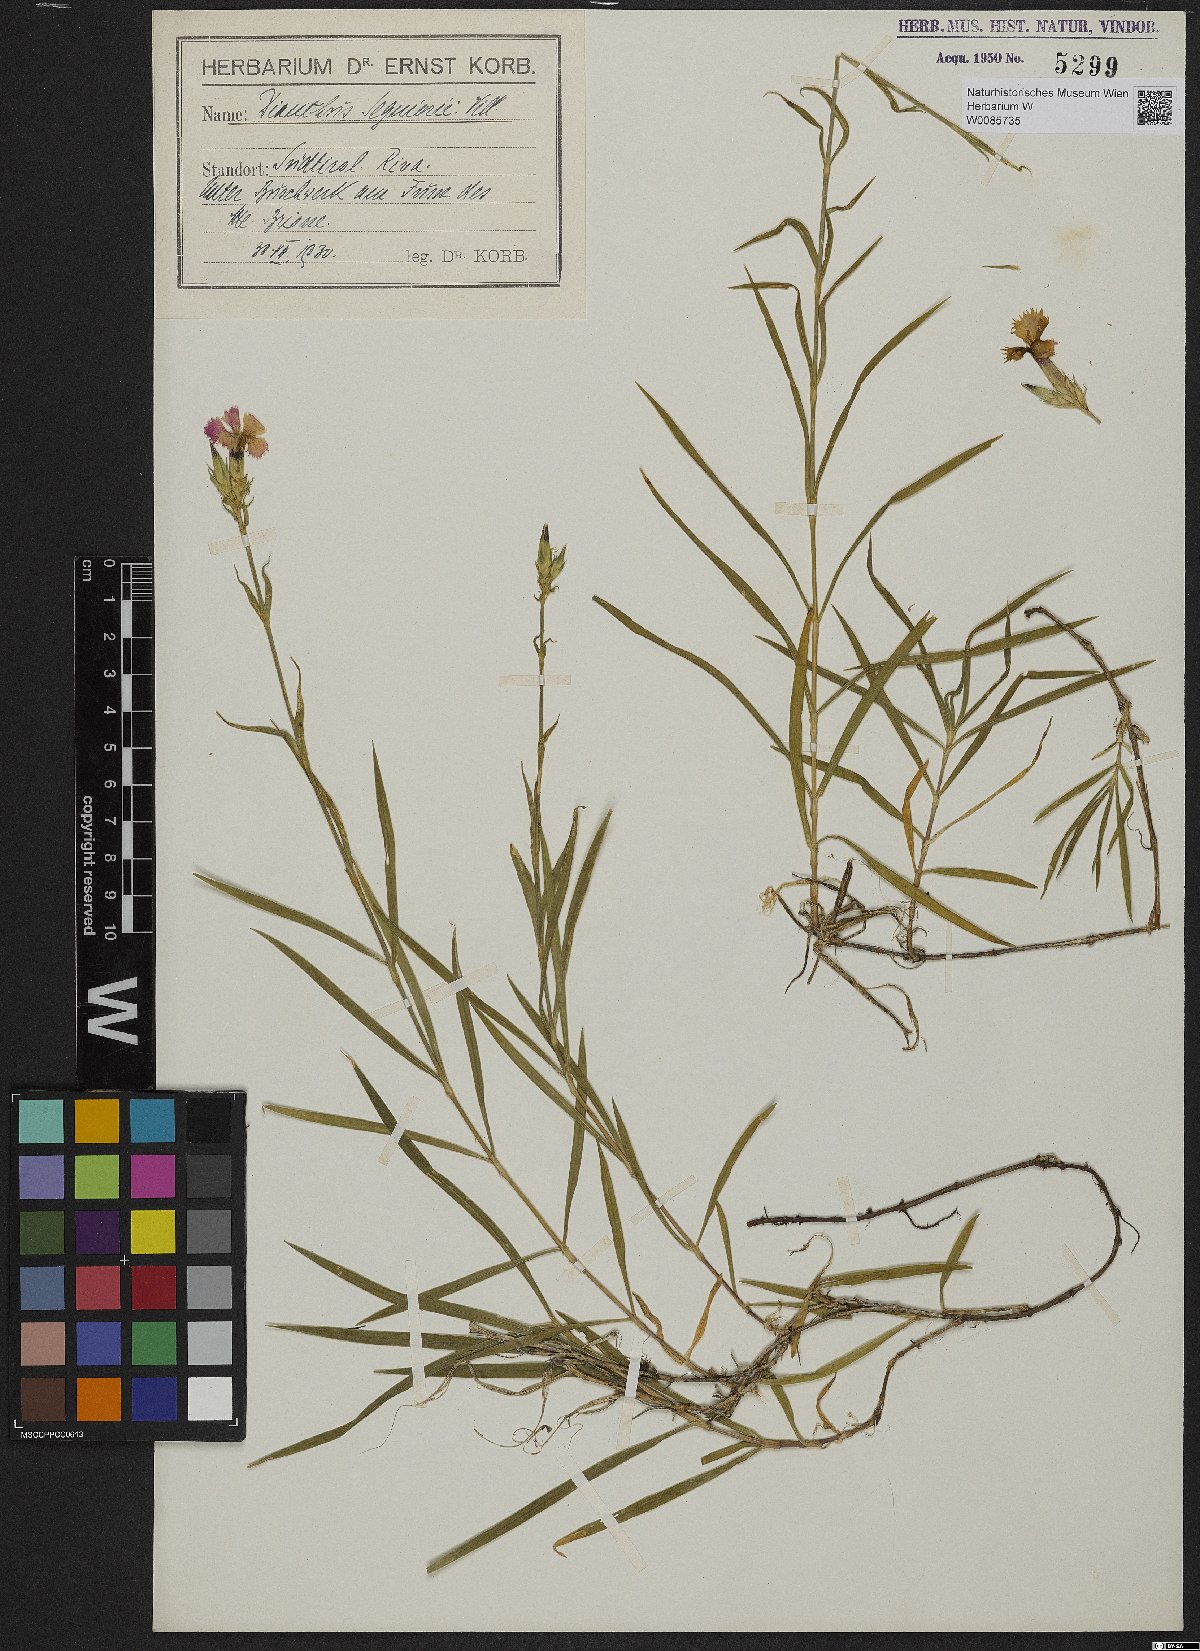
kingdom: Plantae
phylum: Tracheophyta
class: Magnoliopsida
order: Caryophyllales
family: Caryophyllaceae
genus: Dianthus
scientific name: Dianthus seguieri
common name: Ragged pink
